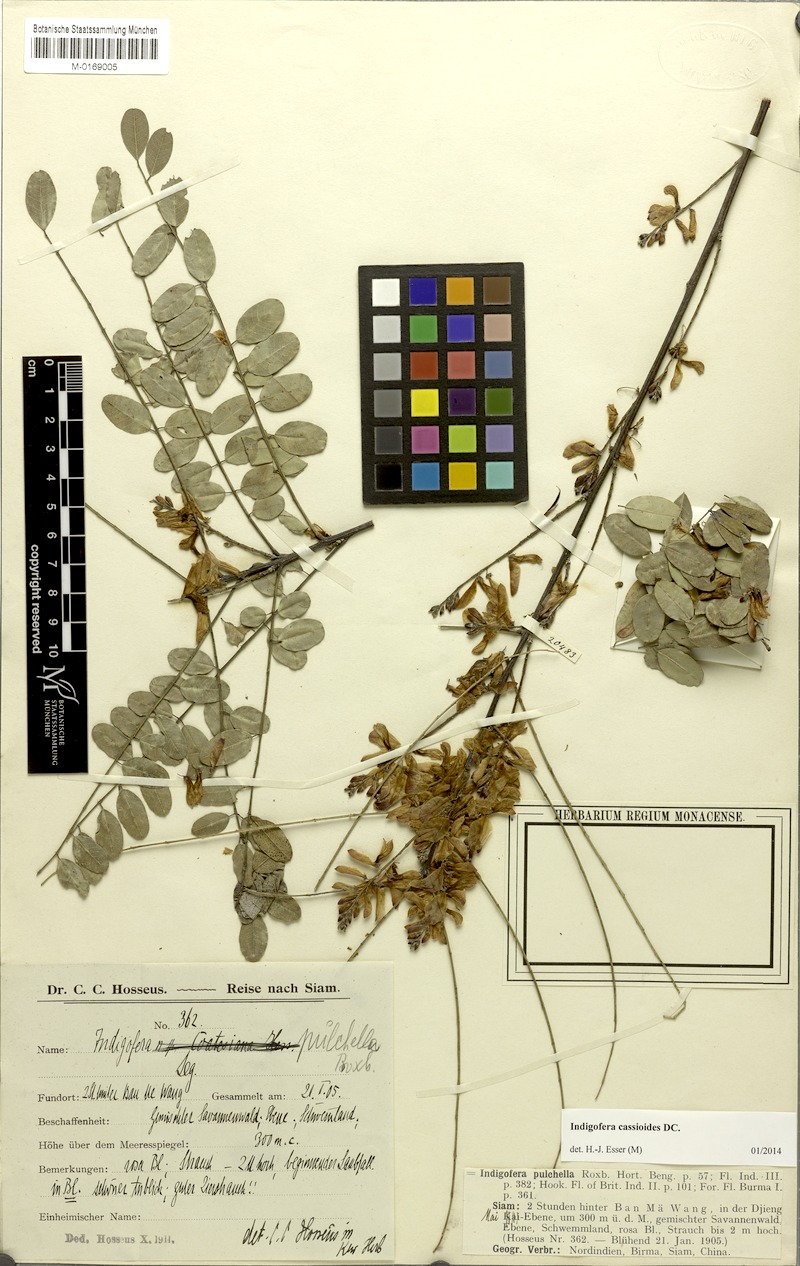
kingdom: Plantae
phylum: Tracheophyta
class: Magnoliopsida
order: Fabales
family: Fabaceae
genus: Indigofera
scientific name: Indigofera cassioides
